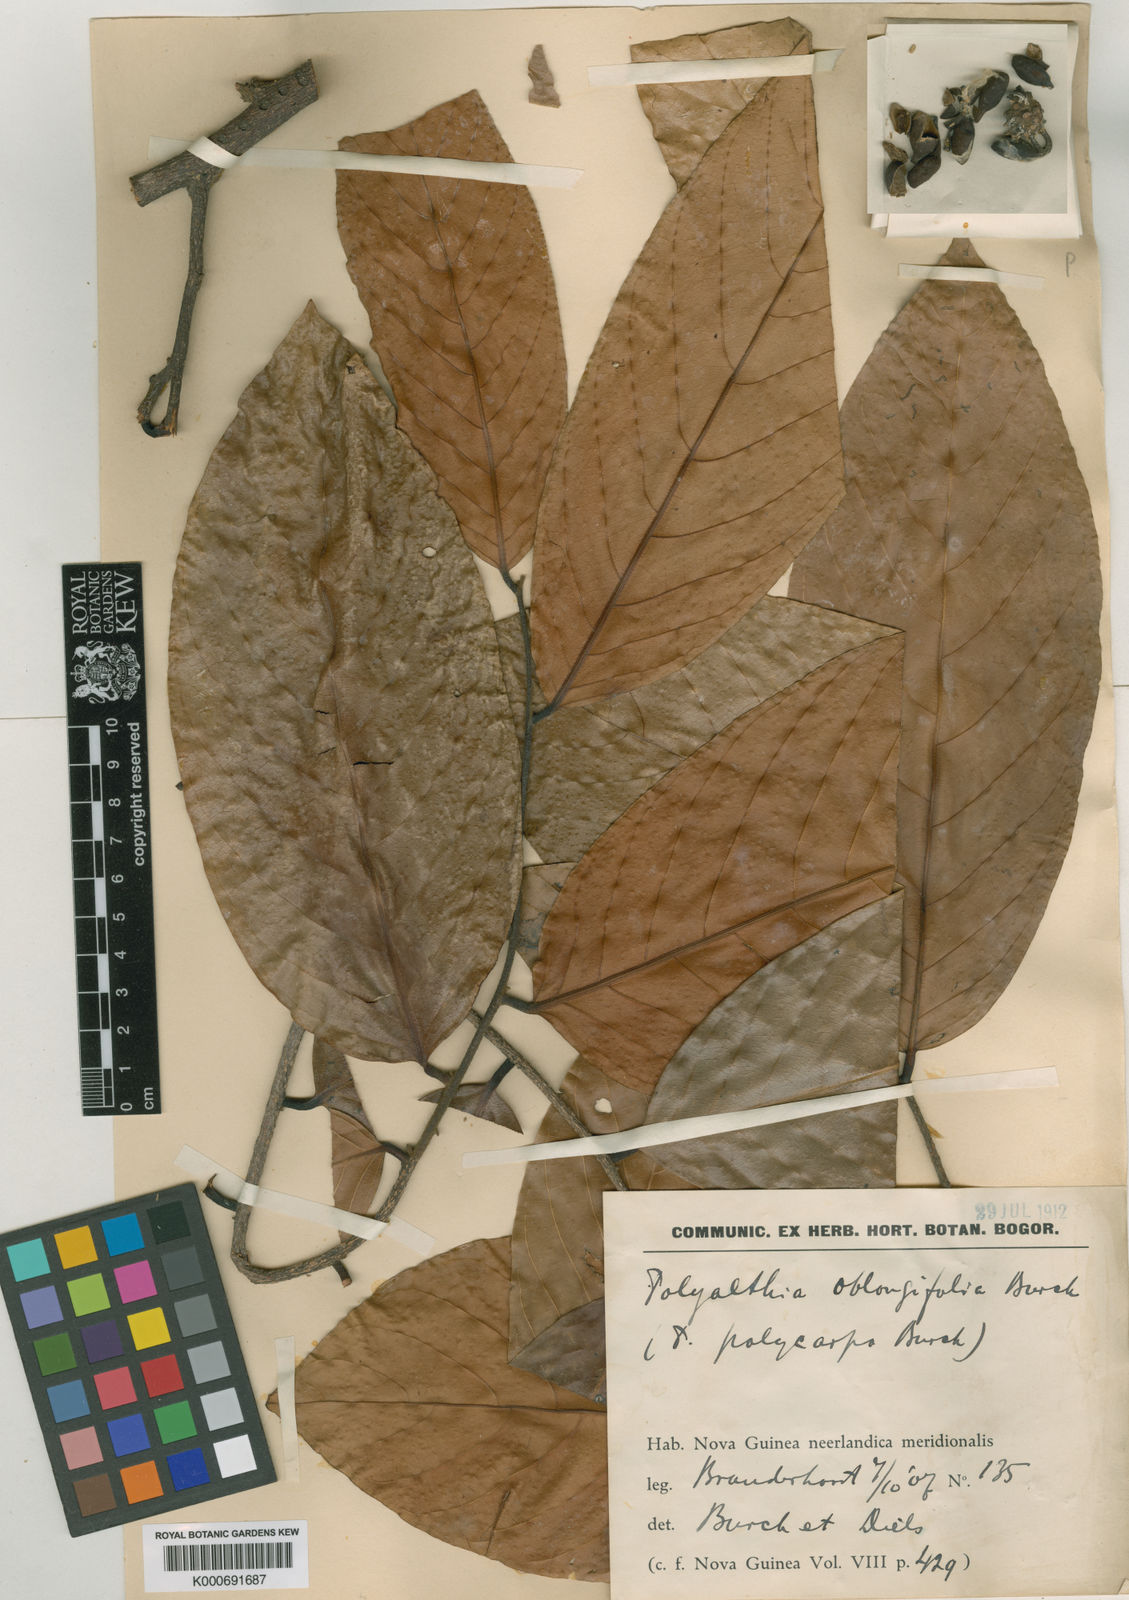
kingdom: Plantae
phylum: Tracheophyta
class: Magnoliopsida
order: Magnoliales
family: Annonaceae
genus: Polyalthia
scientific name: Polyalthia oblongifolia
